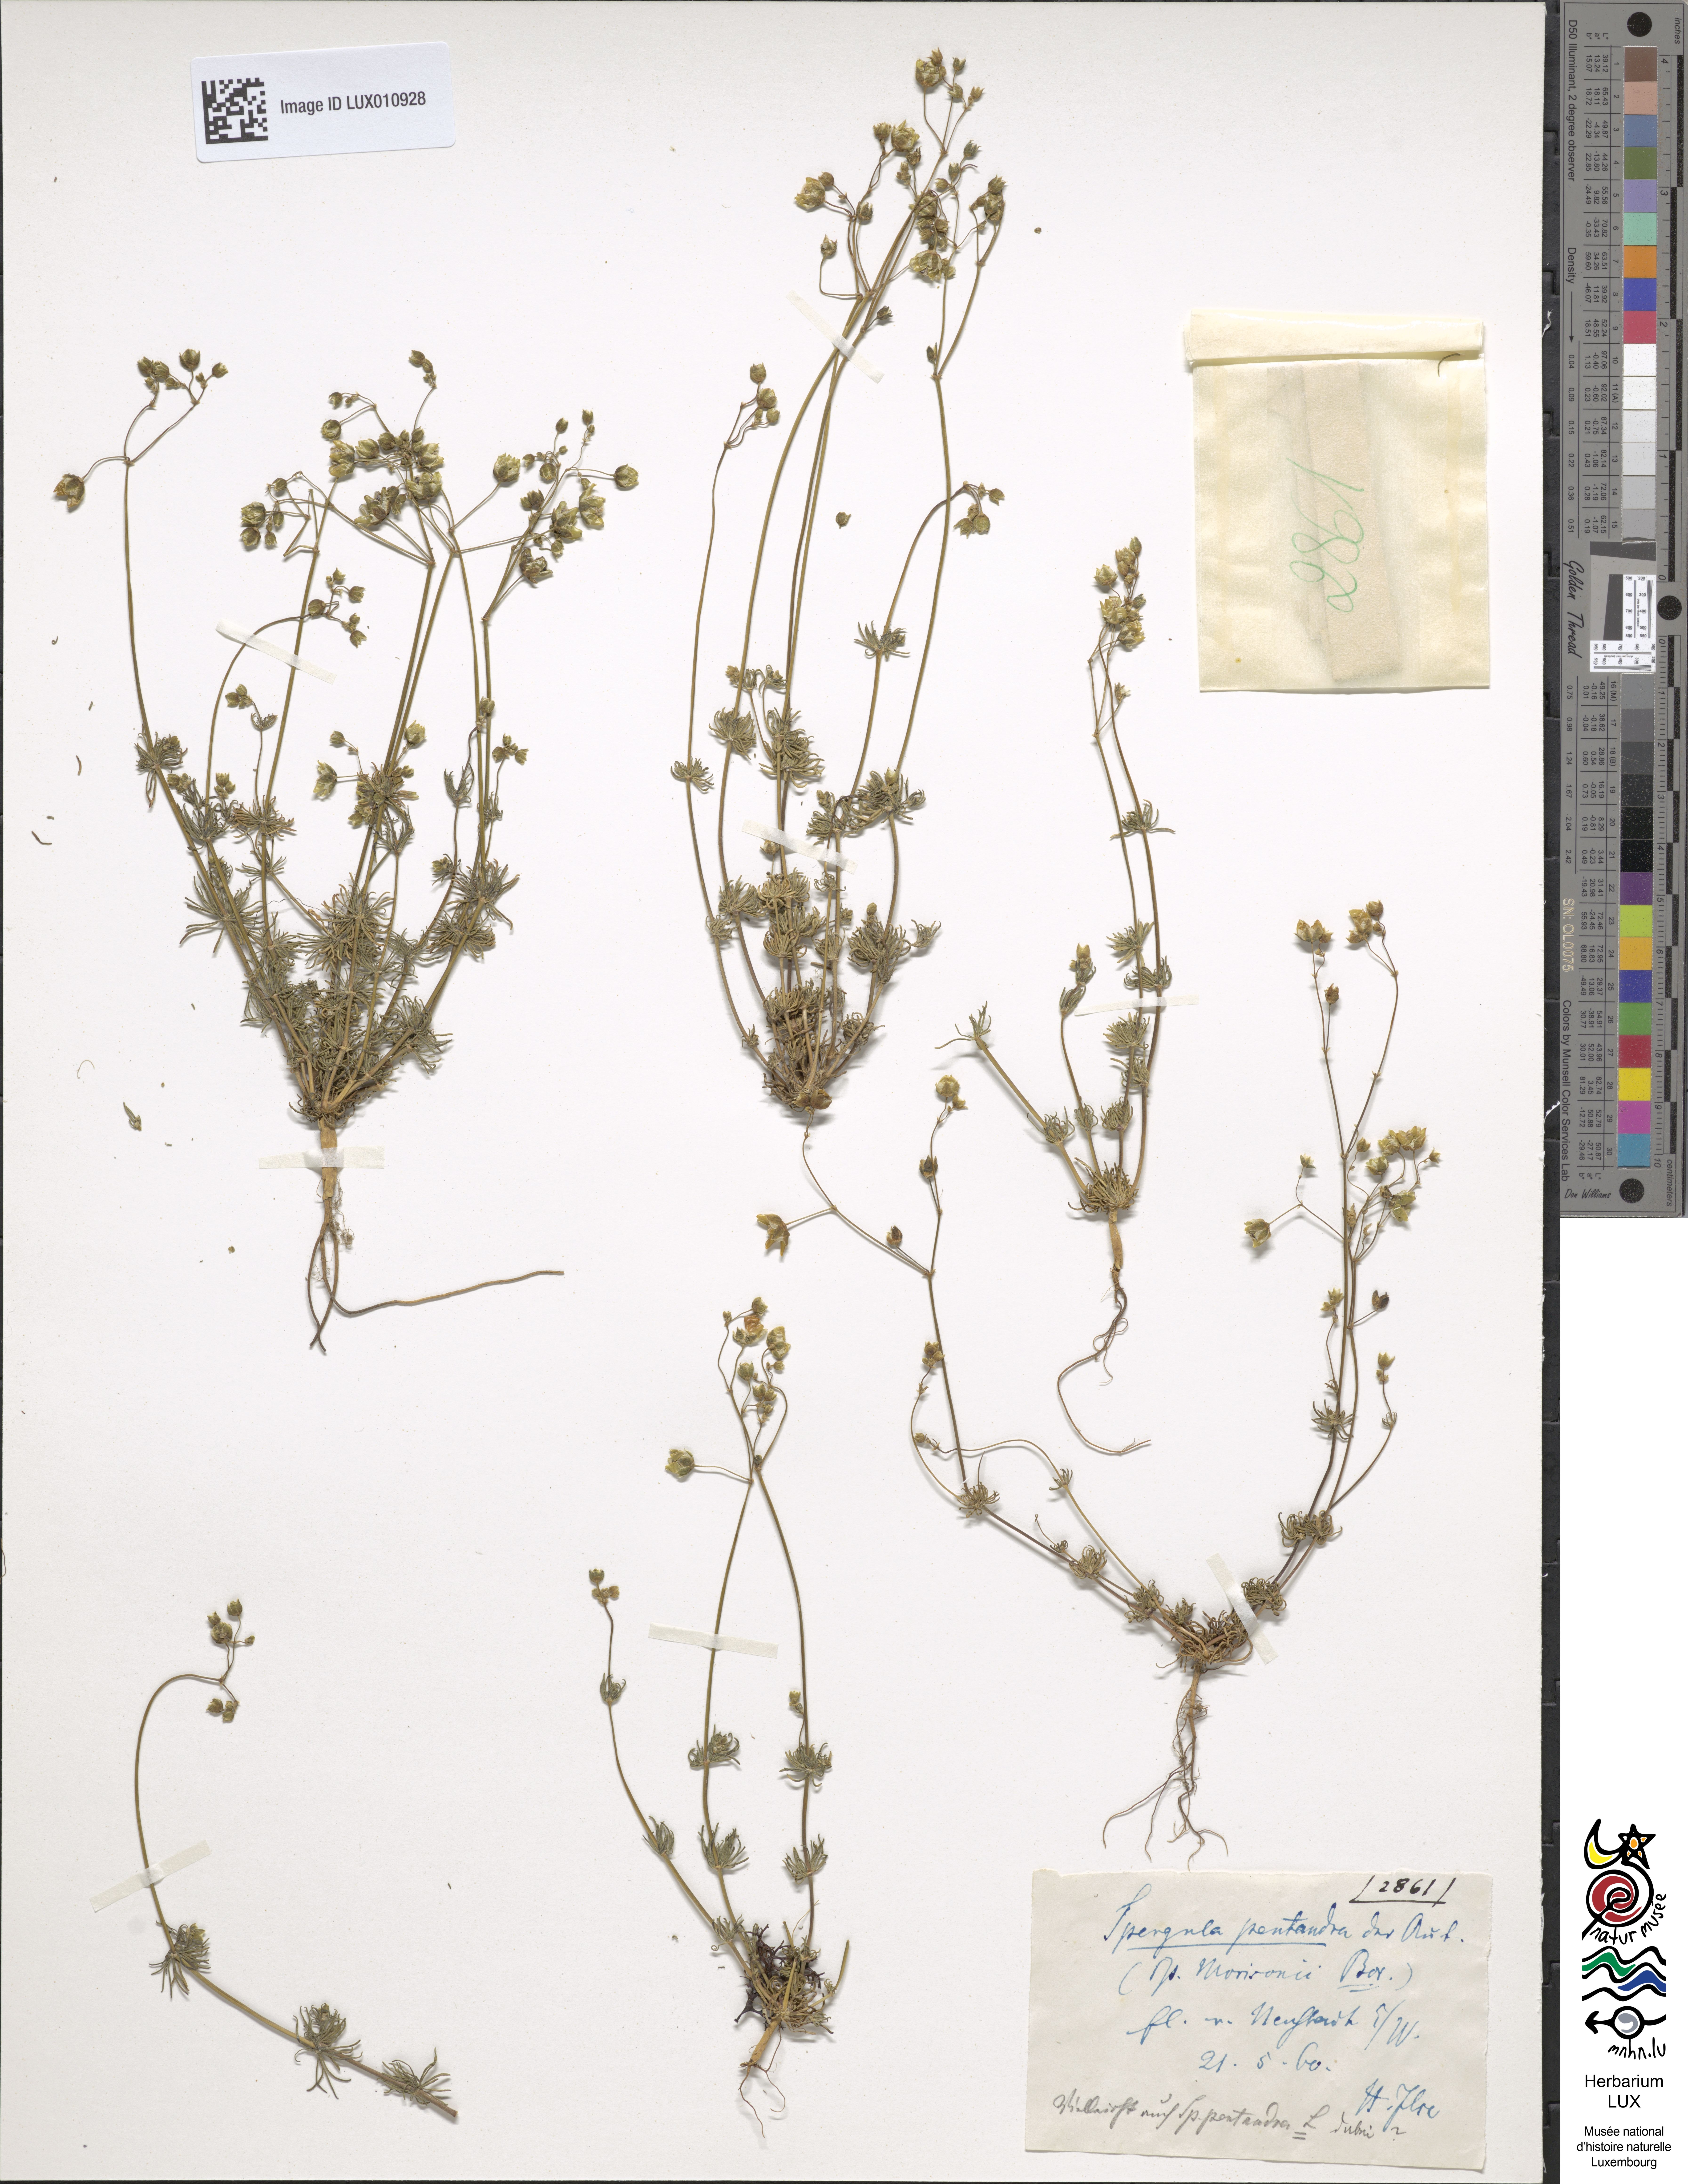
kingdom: Plantae
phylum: Tracheophyta
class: Magnoliopsida
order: Caryophyllales
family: Caryophyllaceae
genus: Spergula
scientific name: Spergula morisonii
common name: Pearlwort spurrey
